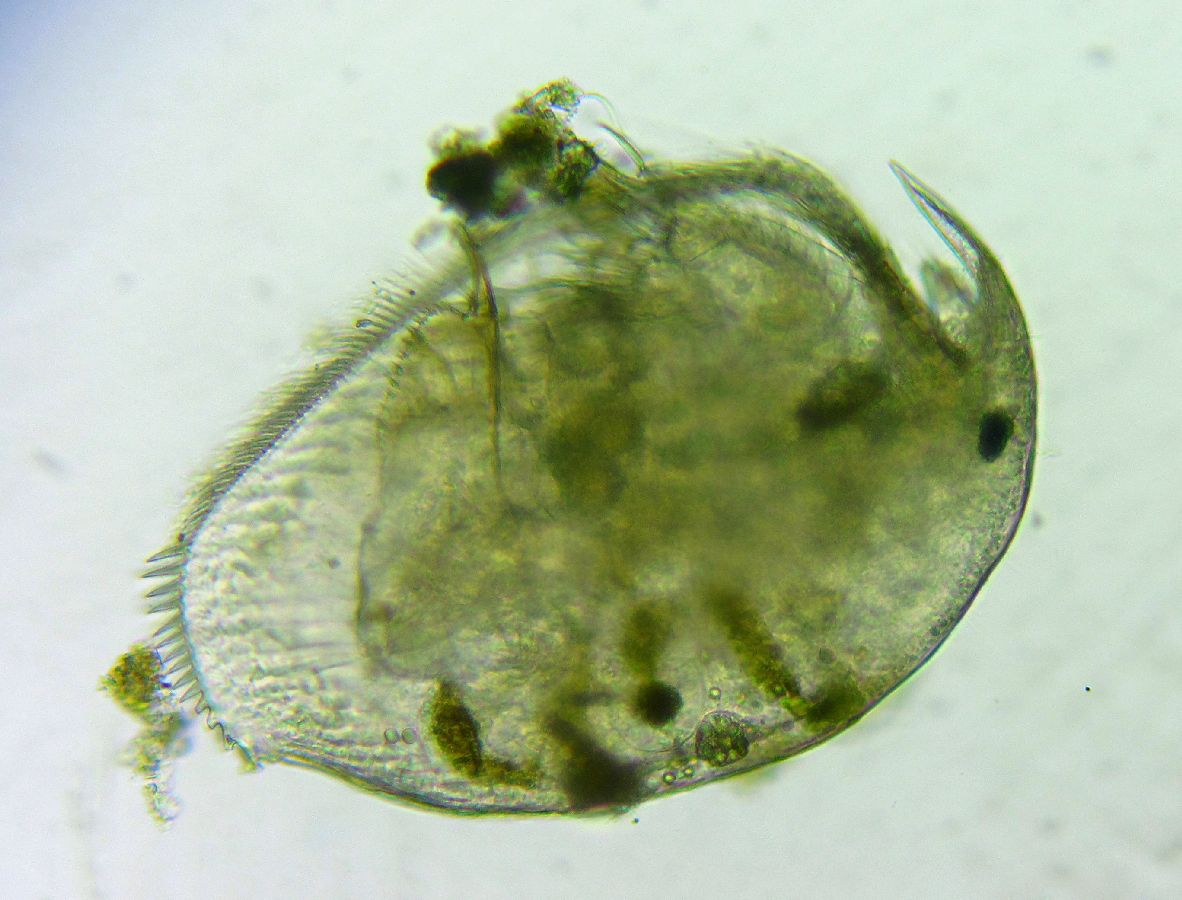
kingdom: Animalia
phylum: Arthropoda
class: Branchiopoda
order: Diplostraca
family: Chydoridae
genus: Peracantha
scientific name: Peracantha truncata
